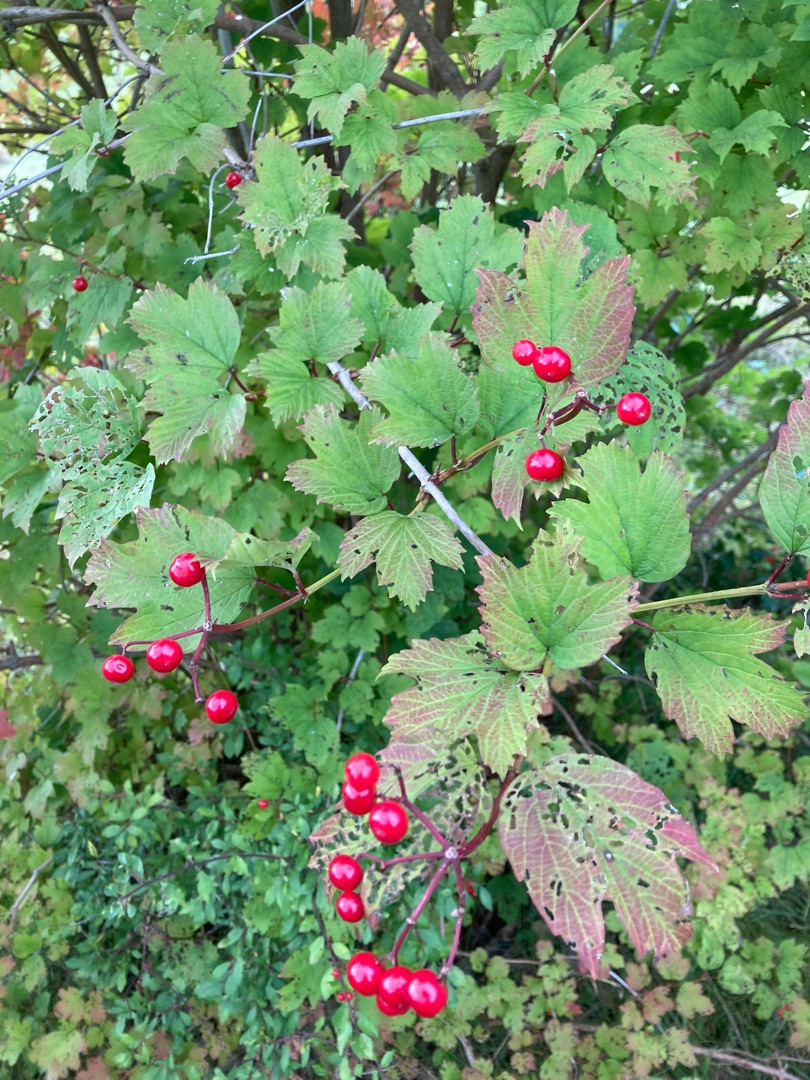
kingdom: Plantae
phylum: Tracheophyta
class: Magnoliopsida
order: Dipsacales
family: Viburnaceae
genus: Viburnum
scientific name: Viburnum opulus
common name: Kvalkved
